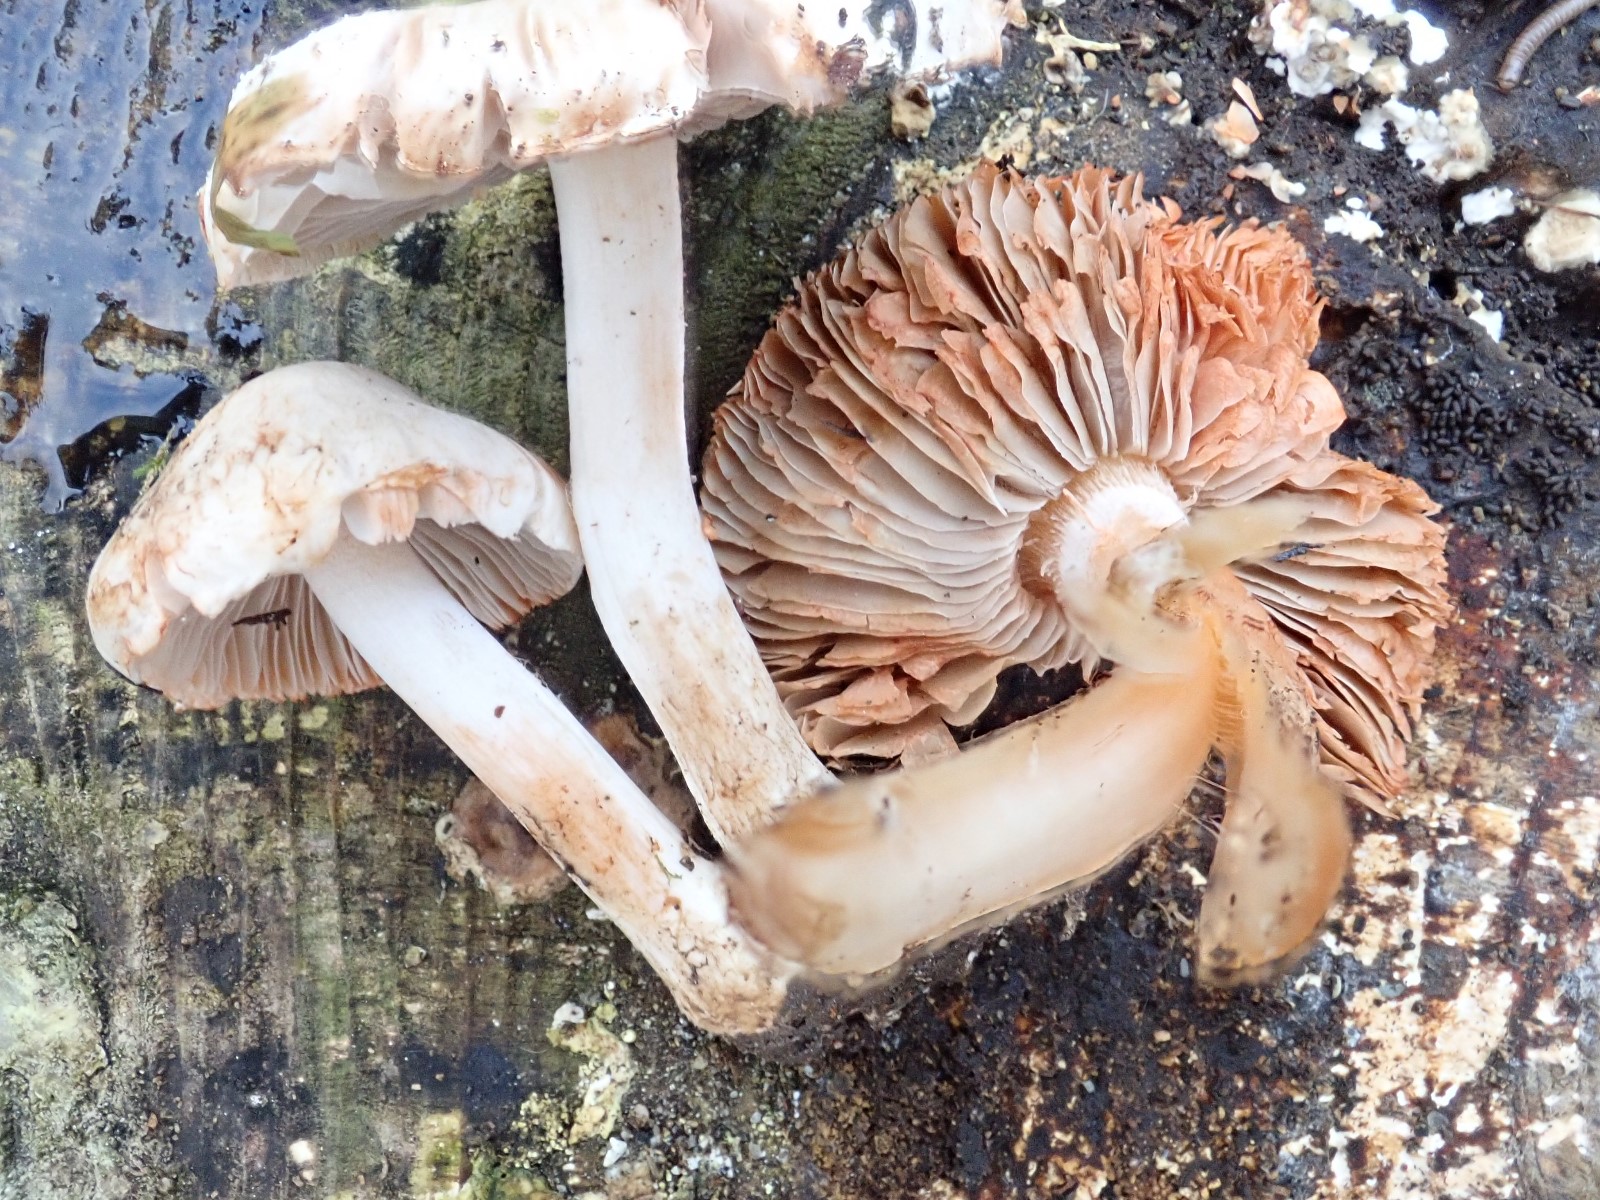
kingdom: Fungi
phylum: Basidiomycota
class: Agaricomycetes
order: Agaricales
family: Inocybaceae
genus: Inocybe
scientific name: Inocybe
